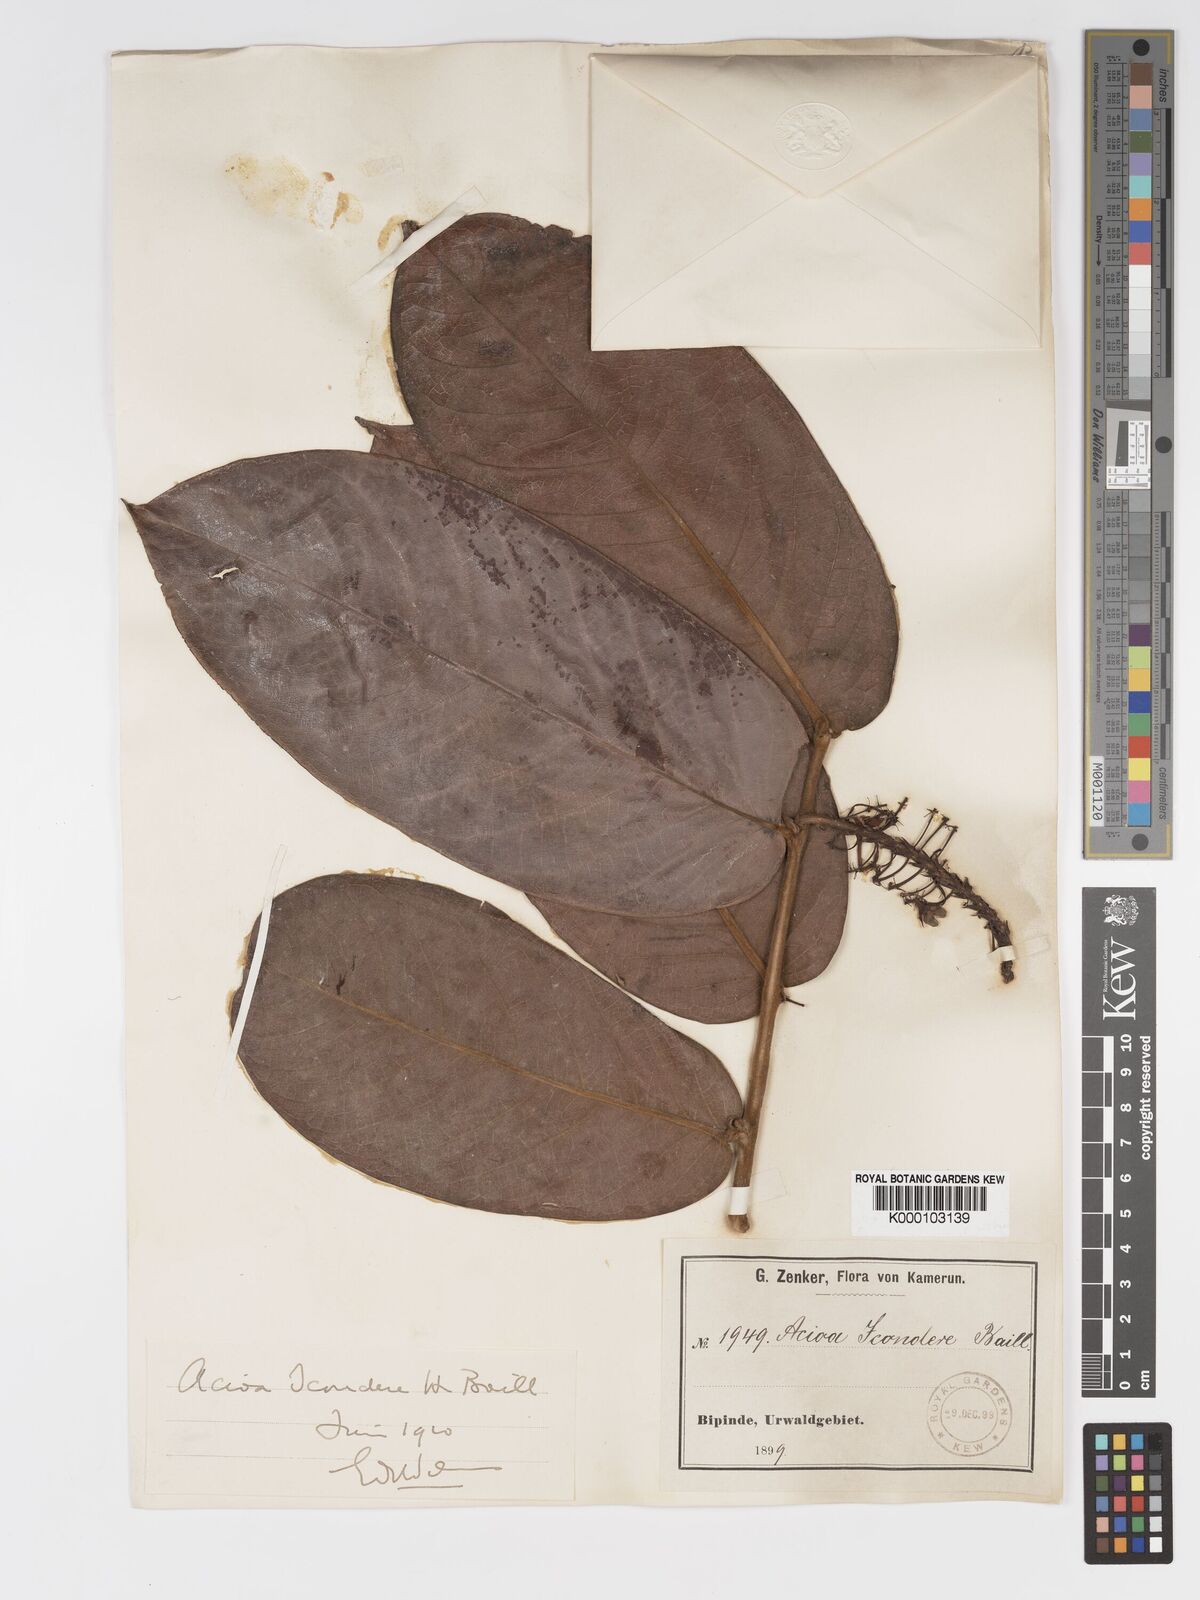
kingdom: Plantae
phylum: Tracheophyta
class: Magnoliopsida
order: Malpighiales
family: Chrysobalanaceae
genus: Dactyladenia
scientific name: Dactyladenia icondere
